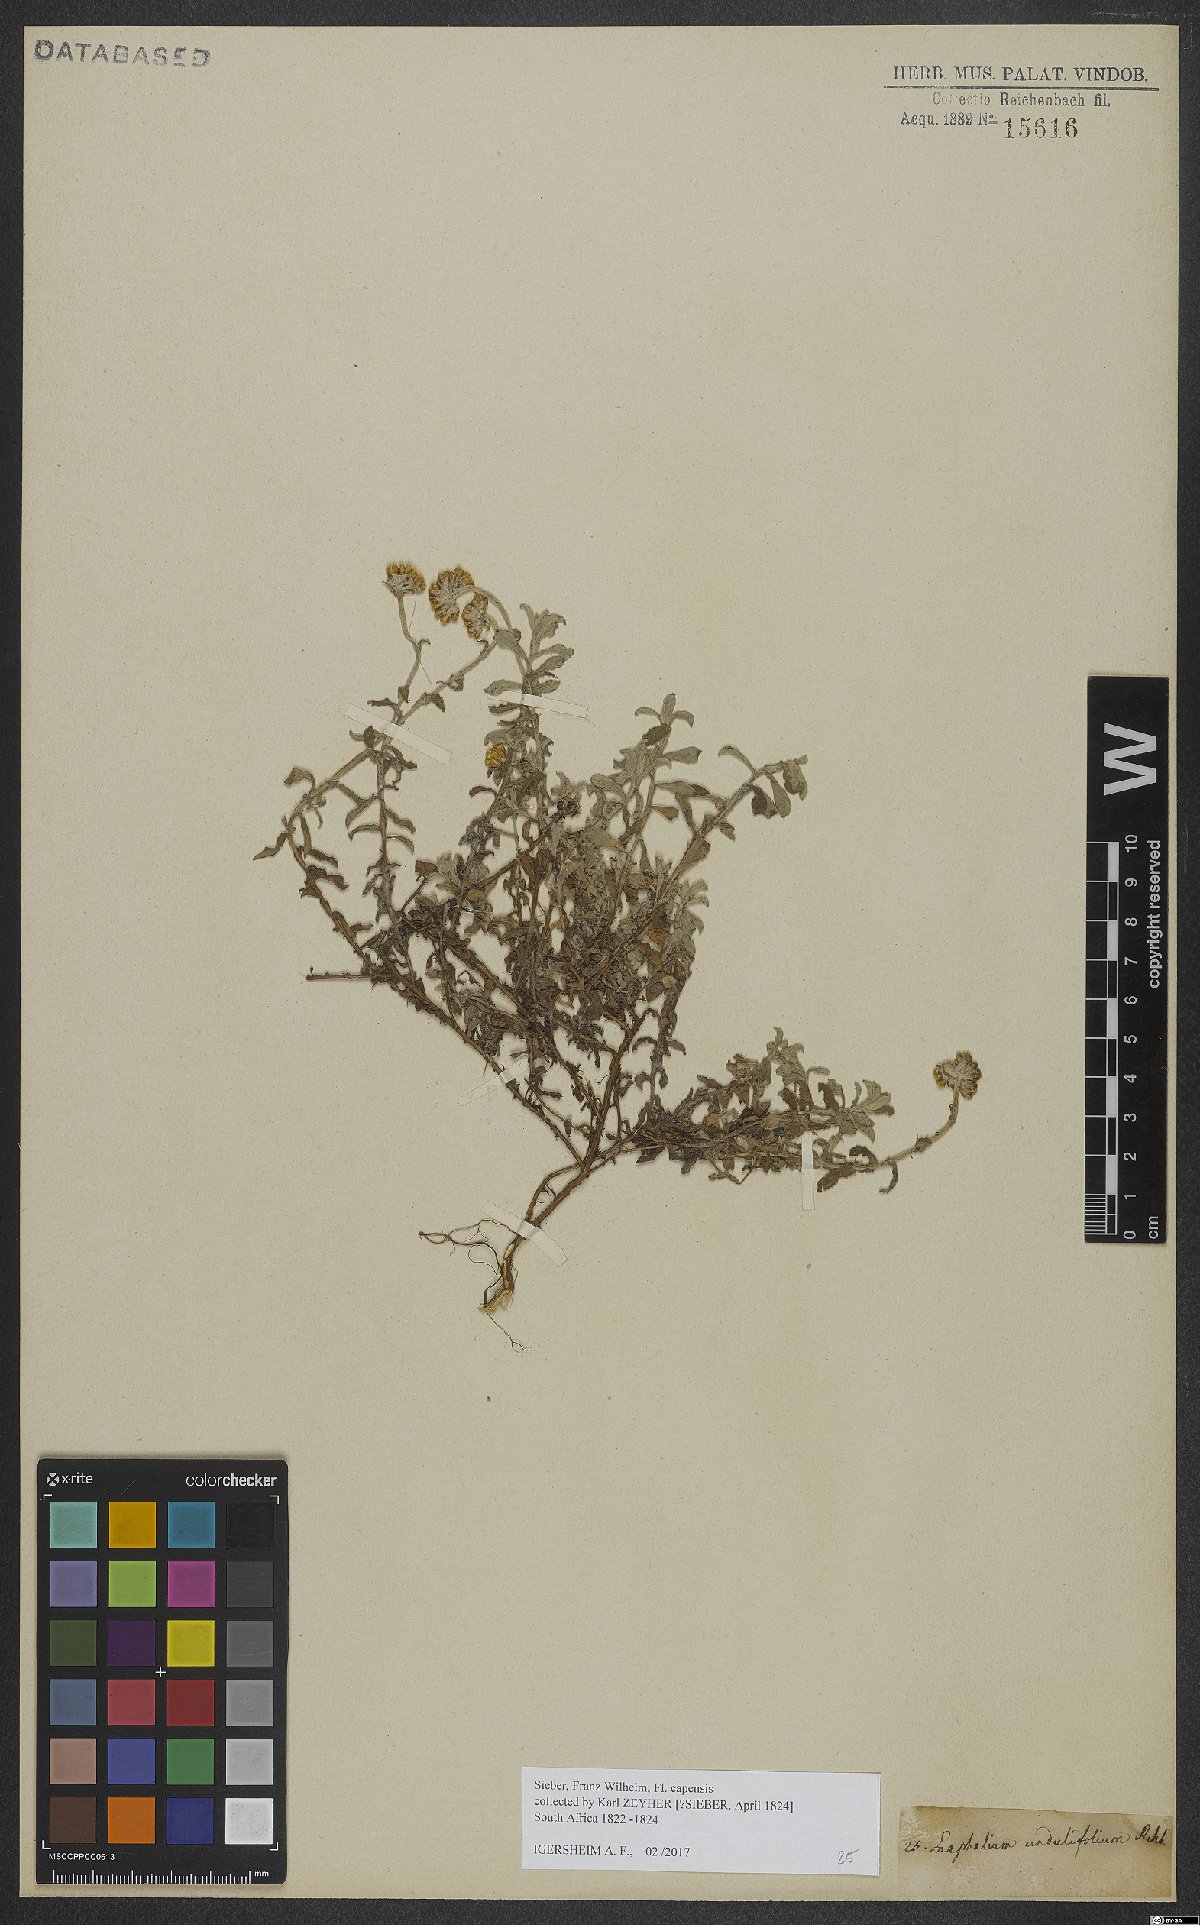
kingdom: Plantae
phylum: Tracheophyta
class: Magnoliopsida
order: Asterales
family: Asteraceae
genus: Helichrysum
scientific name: Helichrysum odoratissimum
